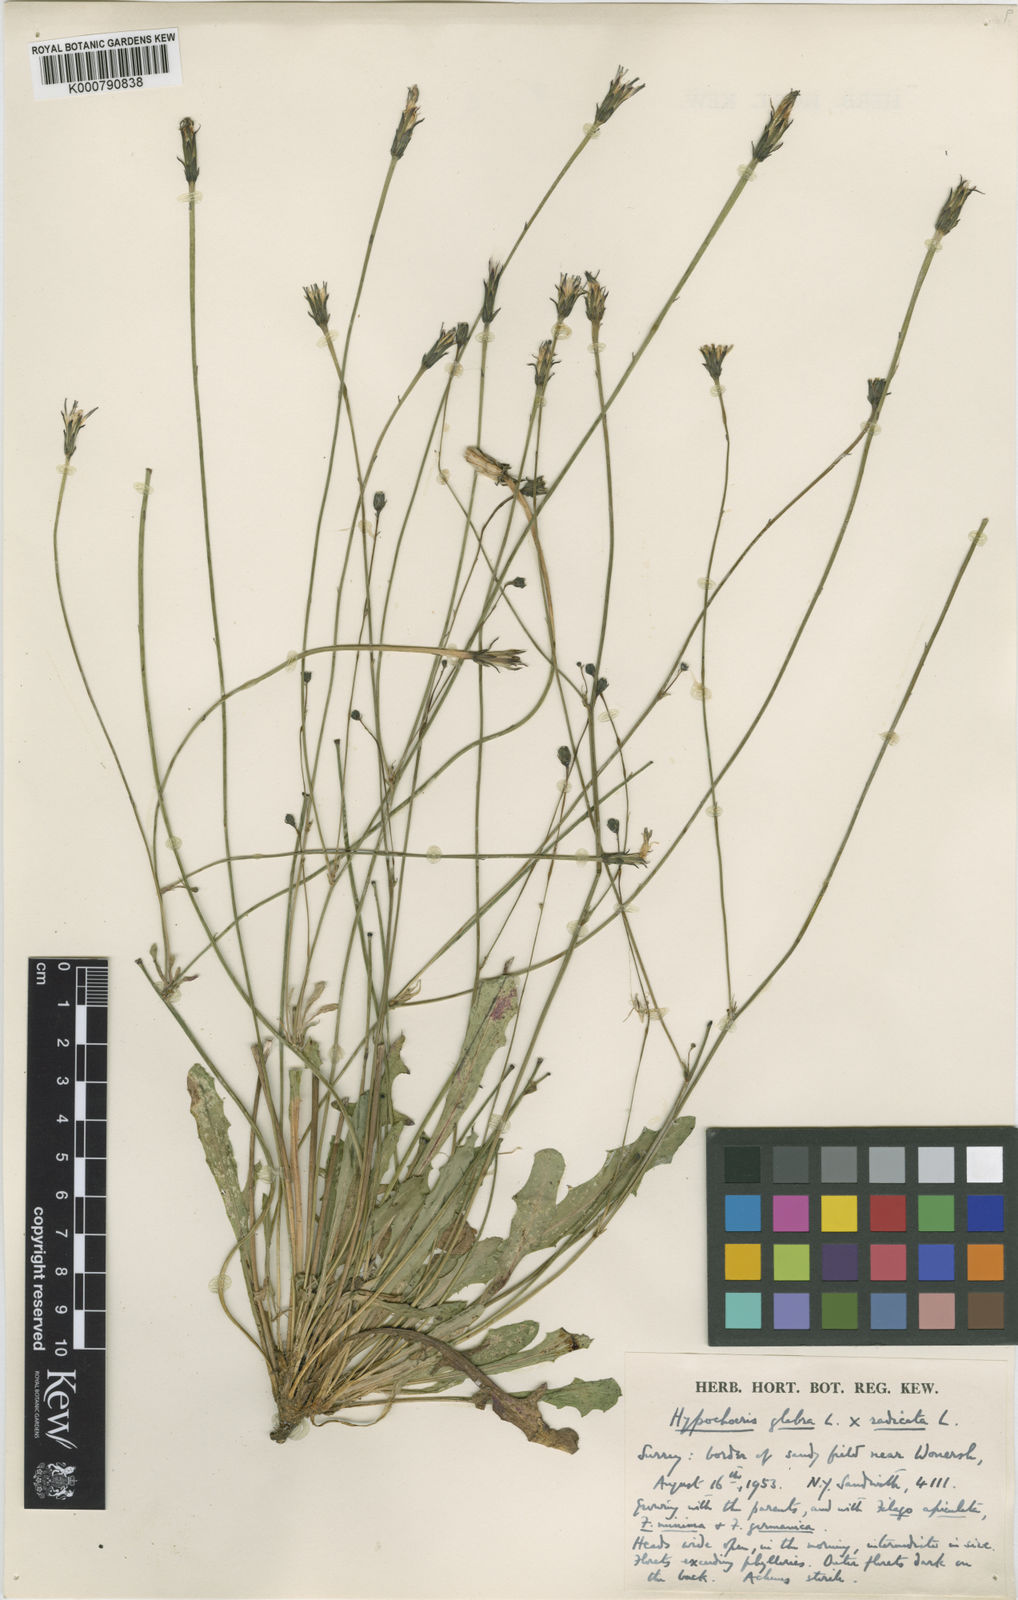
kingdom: Plantae
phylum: Tracheophyta
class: Magnoliopsida
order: Asterales
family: Asteraceae
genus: Hypochaeris
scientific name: Hypochaeris glabra
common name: Smooth catsear
